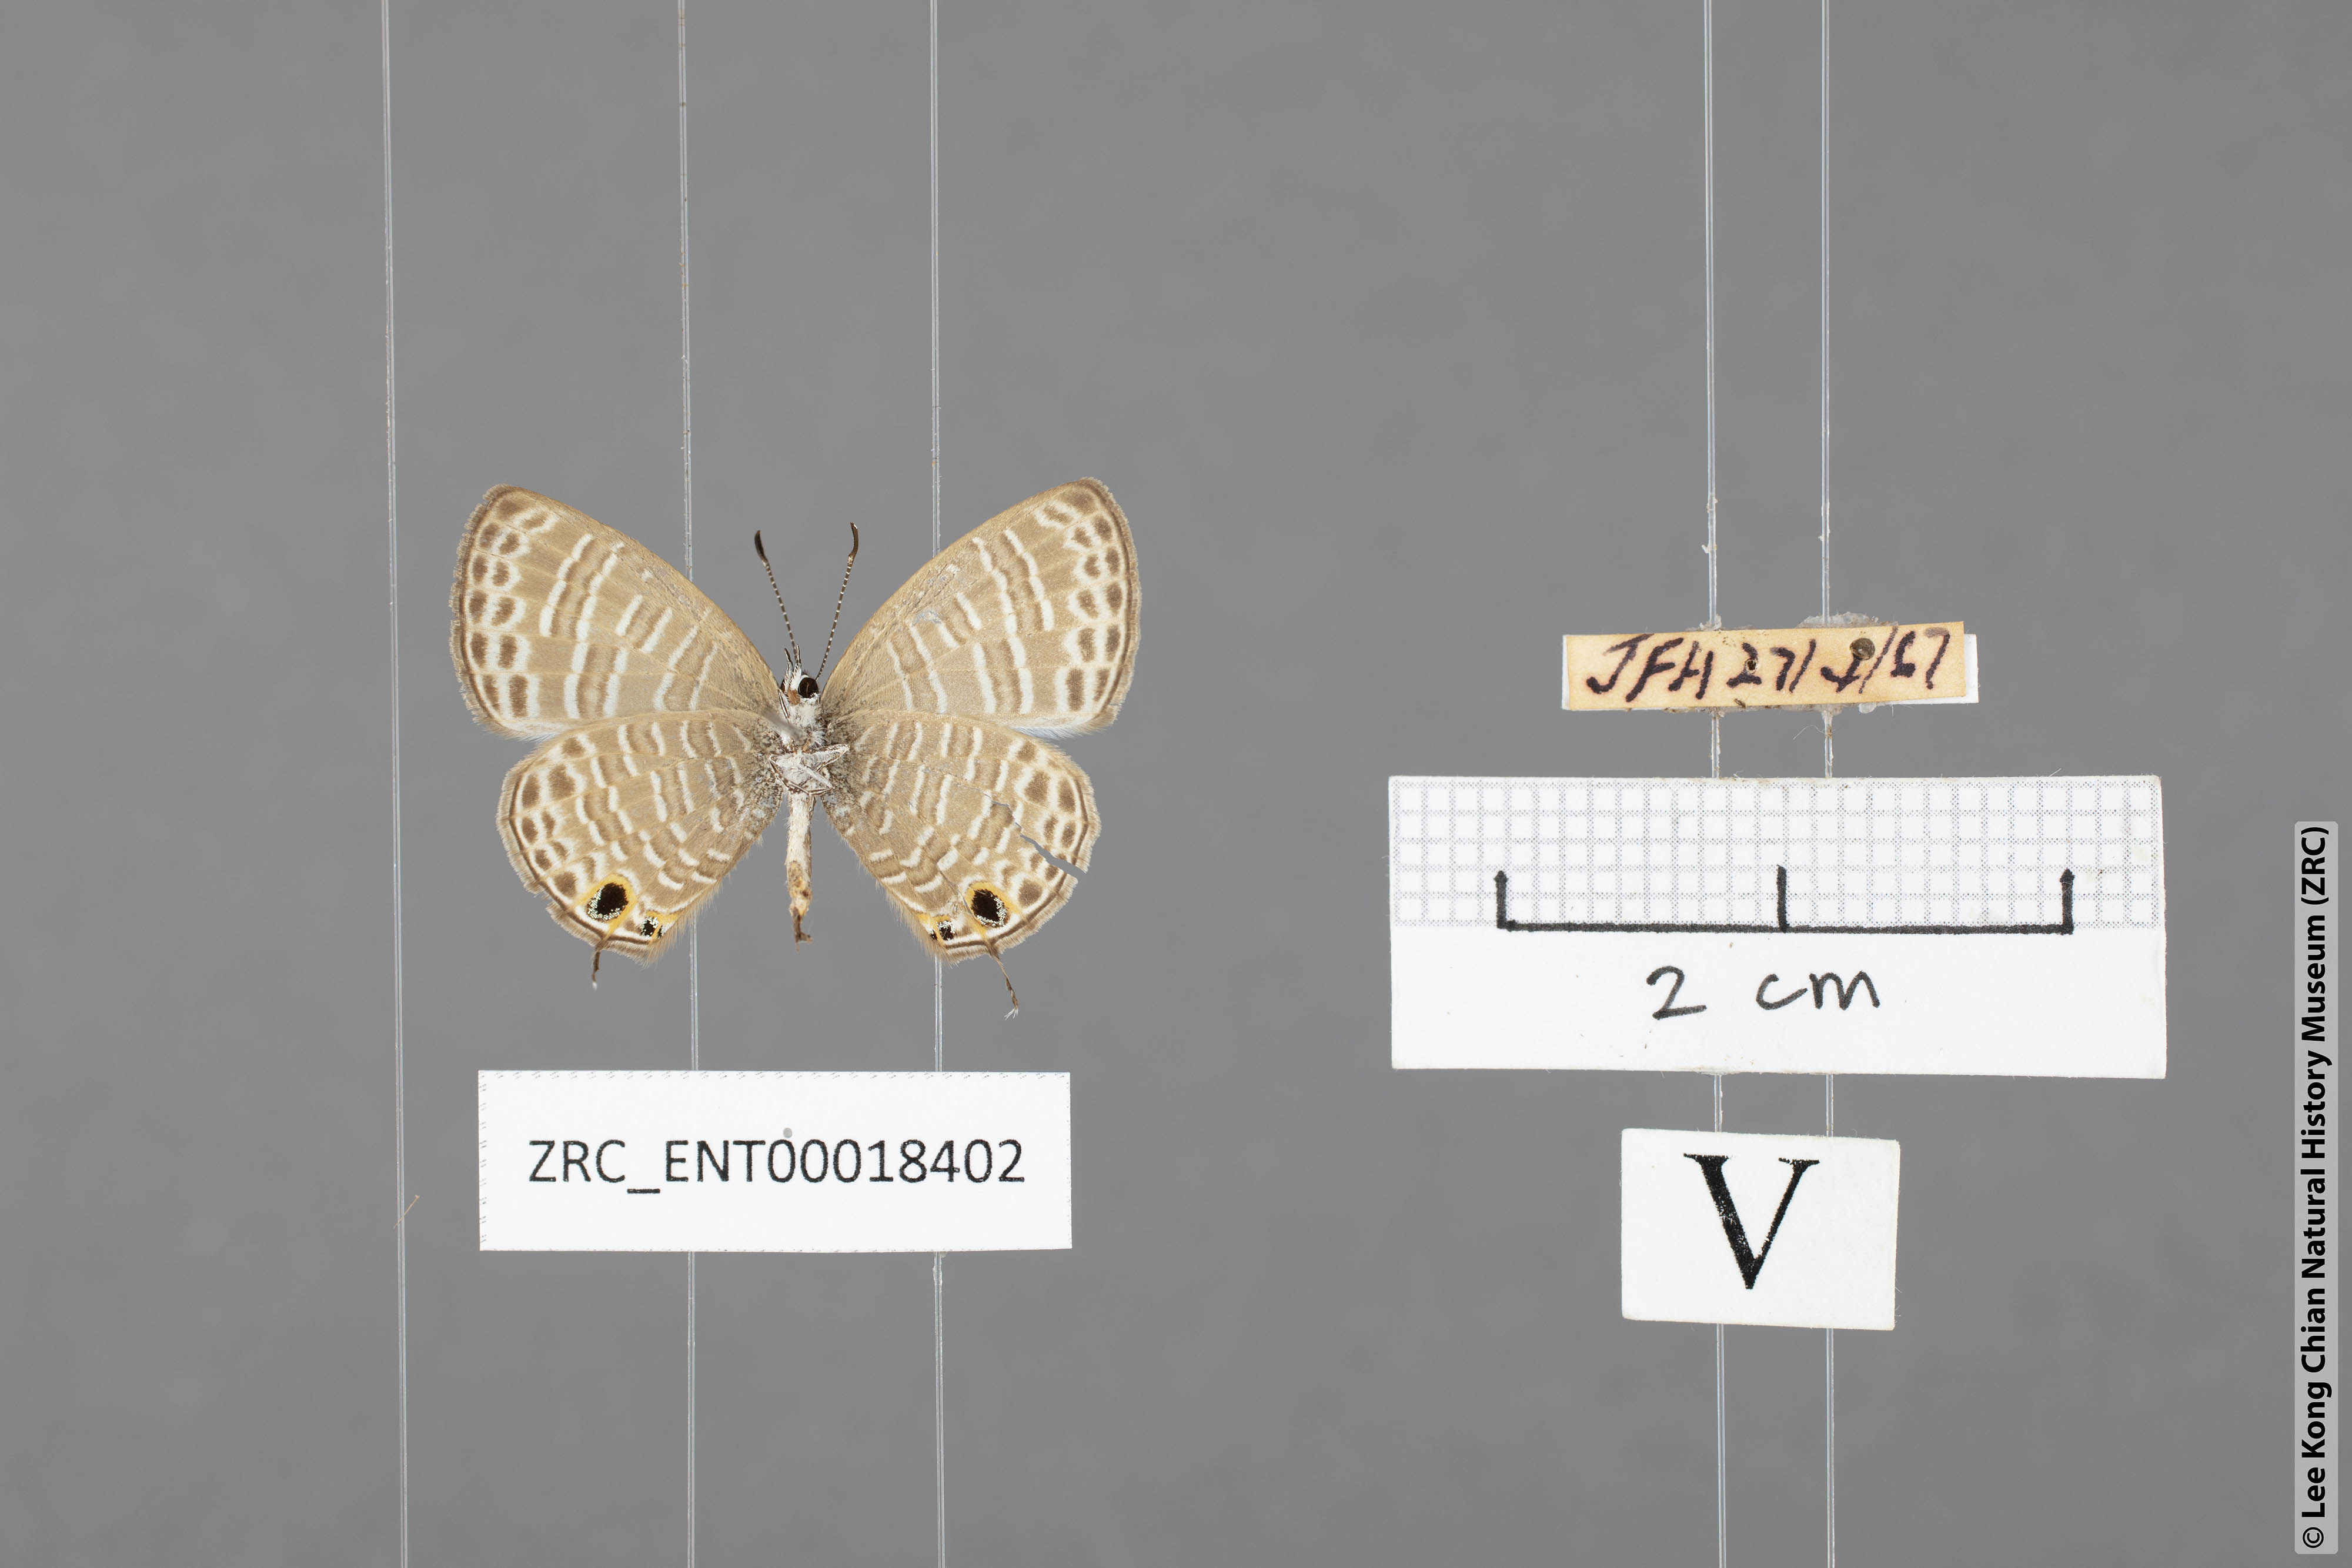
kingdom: Animalia
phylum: Arthropoda
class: Insecta
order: Lepidoptera
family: Lycaenidae
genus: Nacaduba
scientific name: Nacaduba kurava
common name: Transparent 6-line blue
